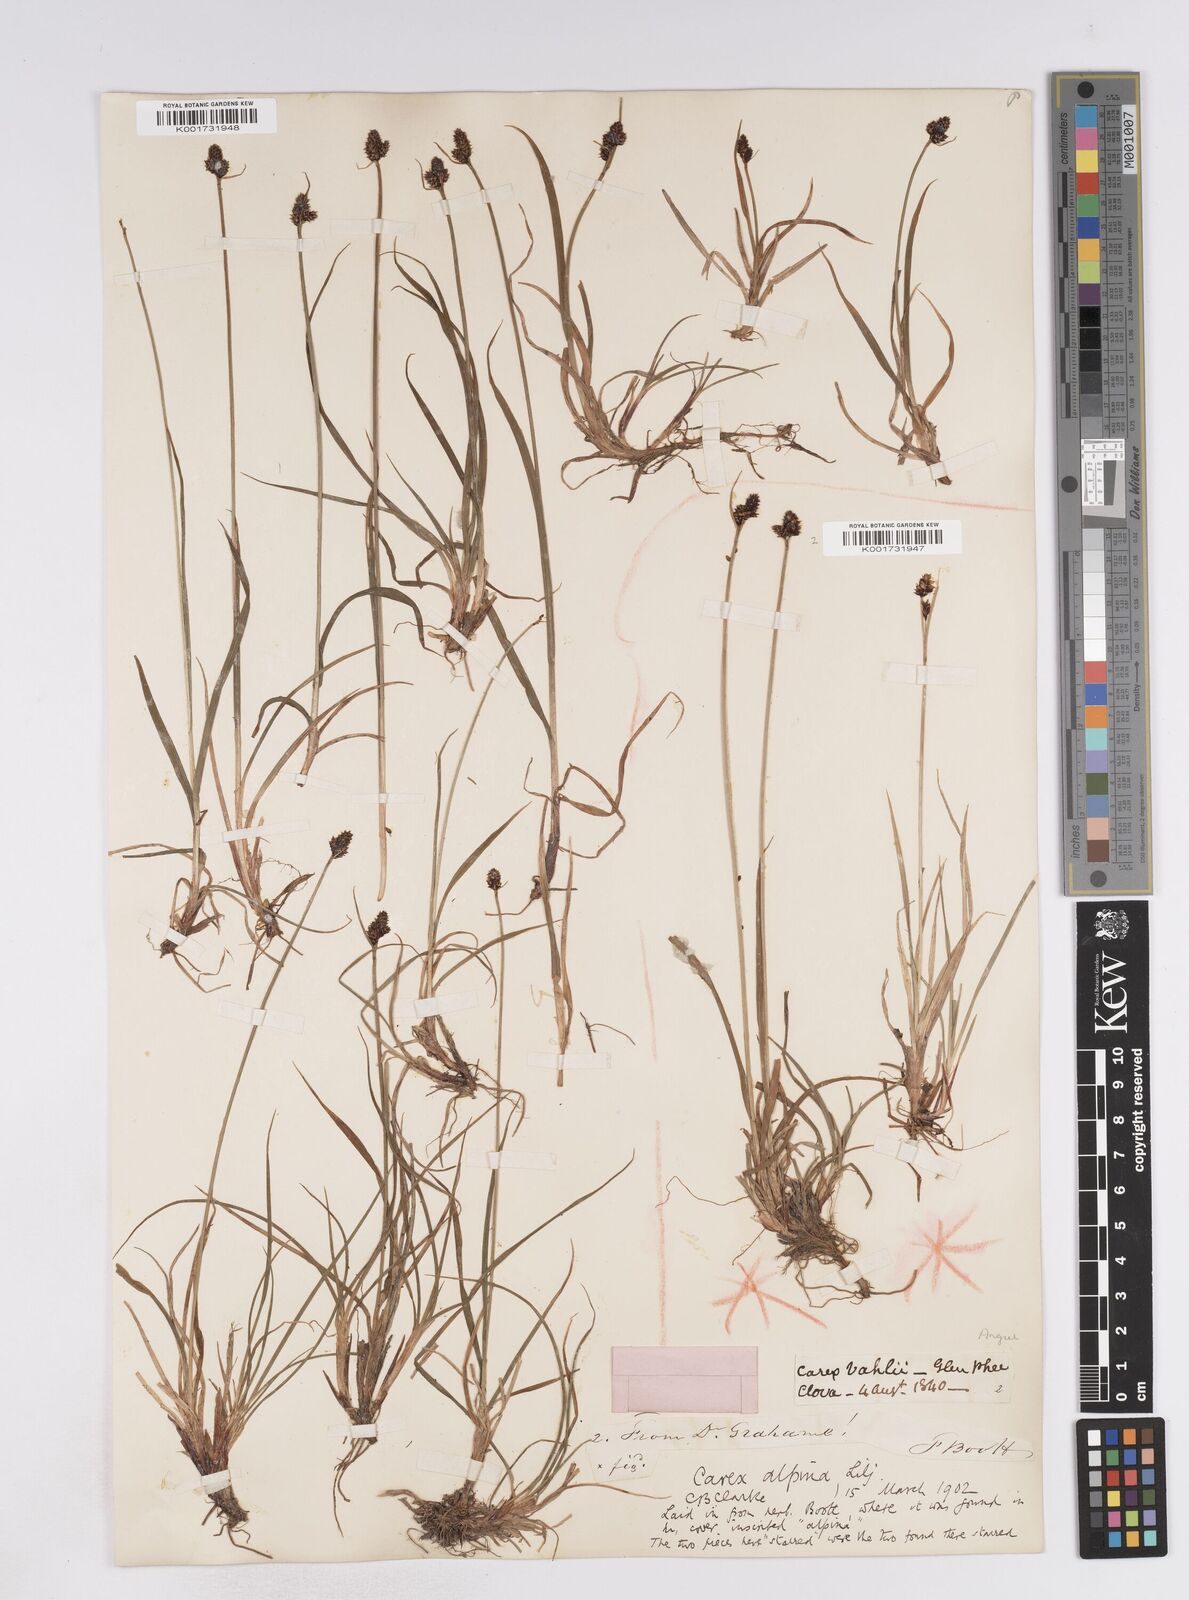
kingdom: Plantae
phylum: Tracheophyta
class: Liliopsida
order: Poales
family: Cyperaceae
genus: Carex
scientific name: Carex norvegica
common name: Close-headed alpine-sedge
